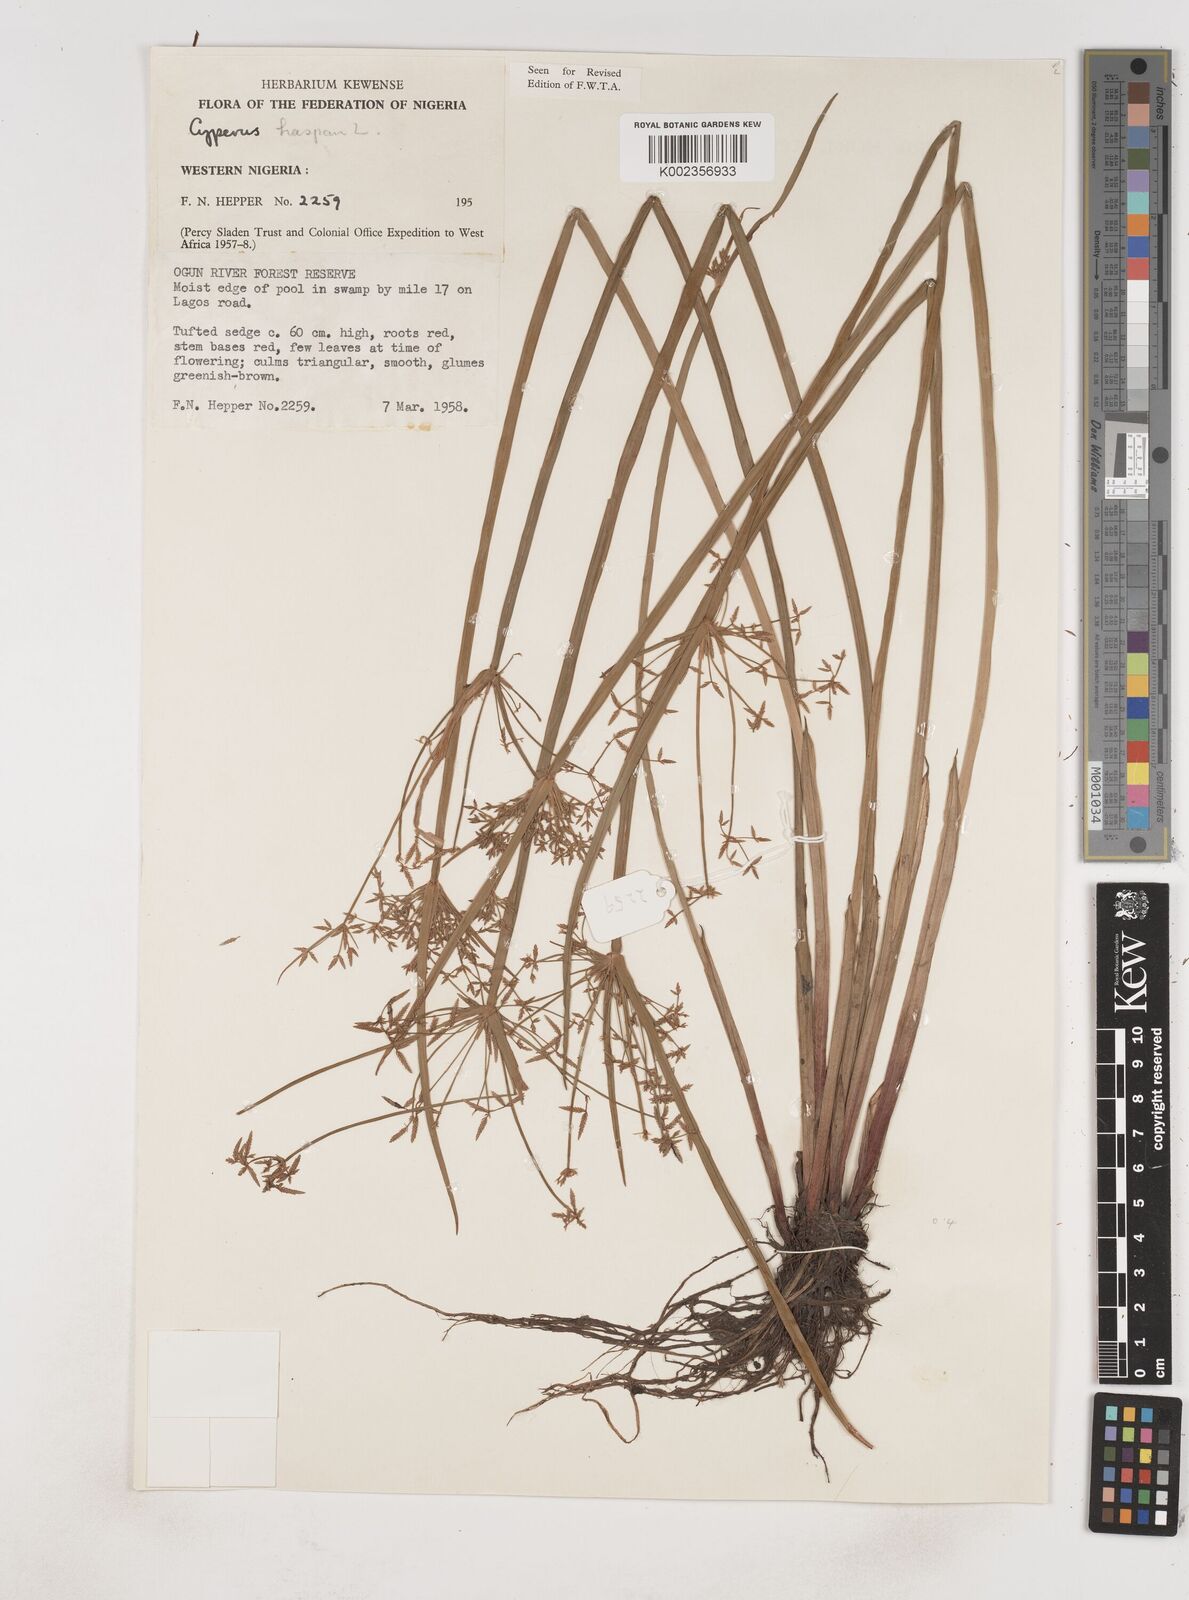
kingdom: Plantae
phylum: Tracheophyta
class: Liliopsida
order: Poales
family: Cyperaceae
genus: Cyperus
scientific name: Cyperus haspan
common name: Haspan flatsedge
